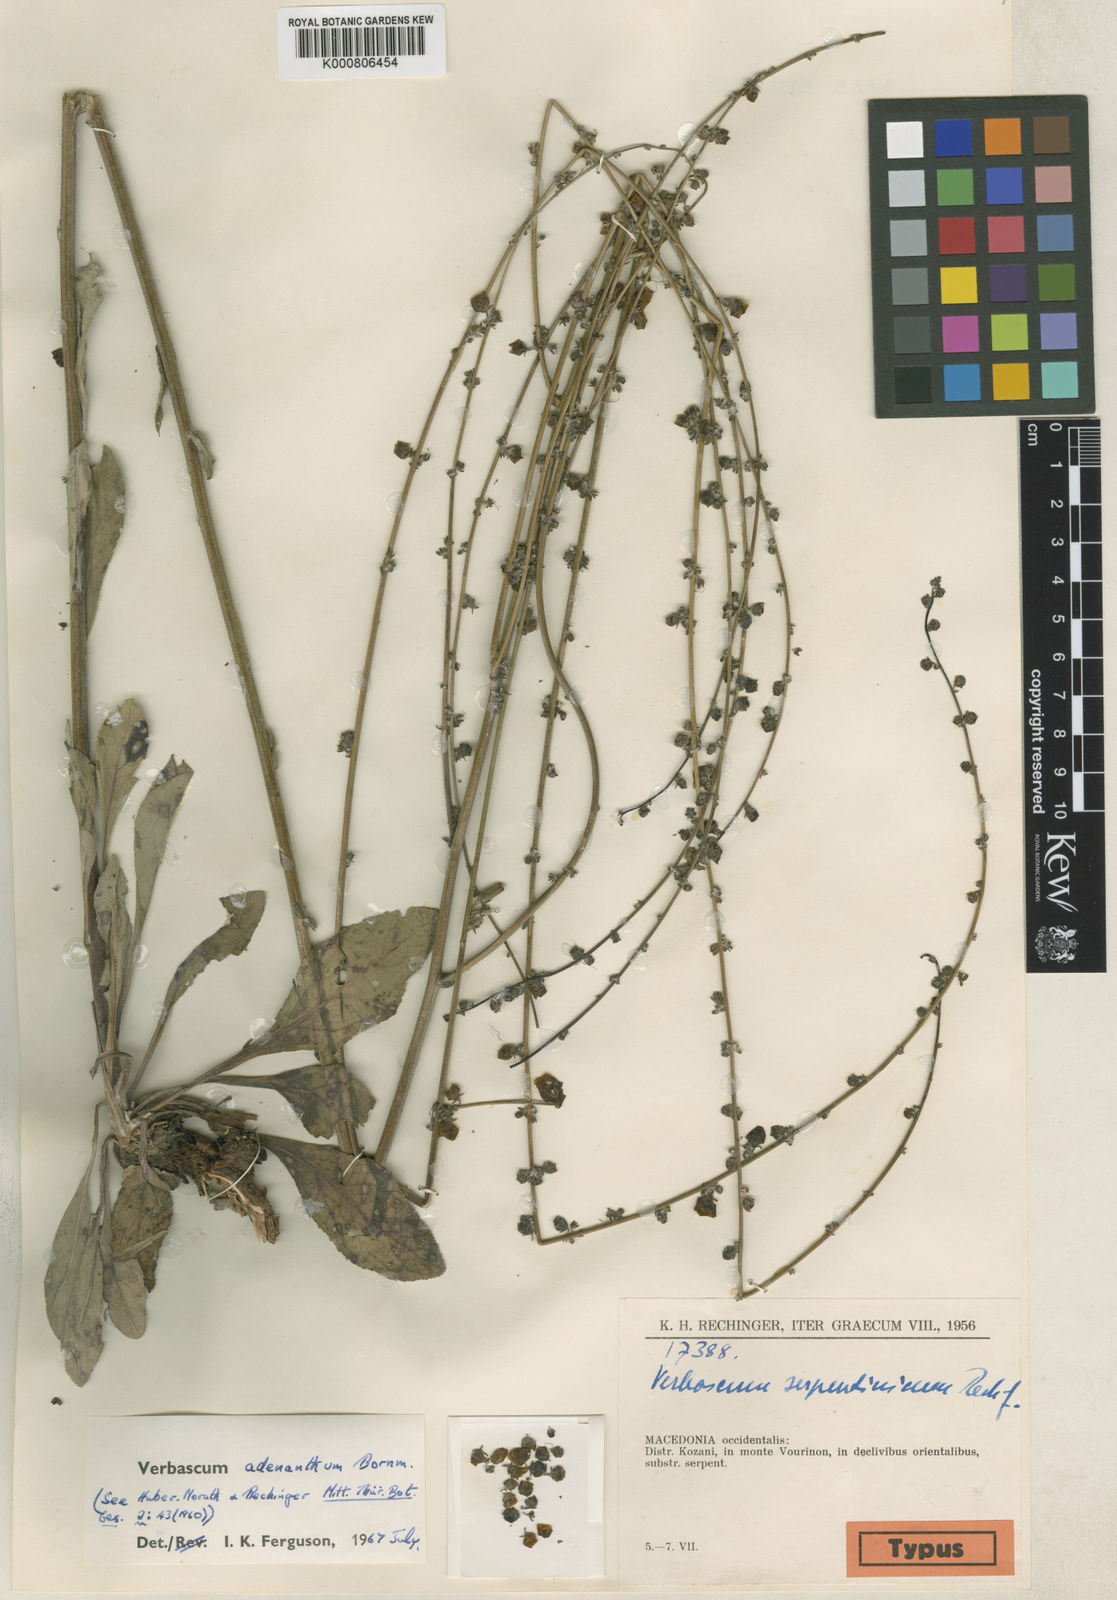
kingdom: Plantae
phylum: Tracheophyta
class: Magnoliopsida
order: Lamiales
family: Scrophulariaceae
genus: Verbascum
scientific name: Verbascum adenanthum
